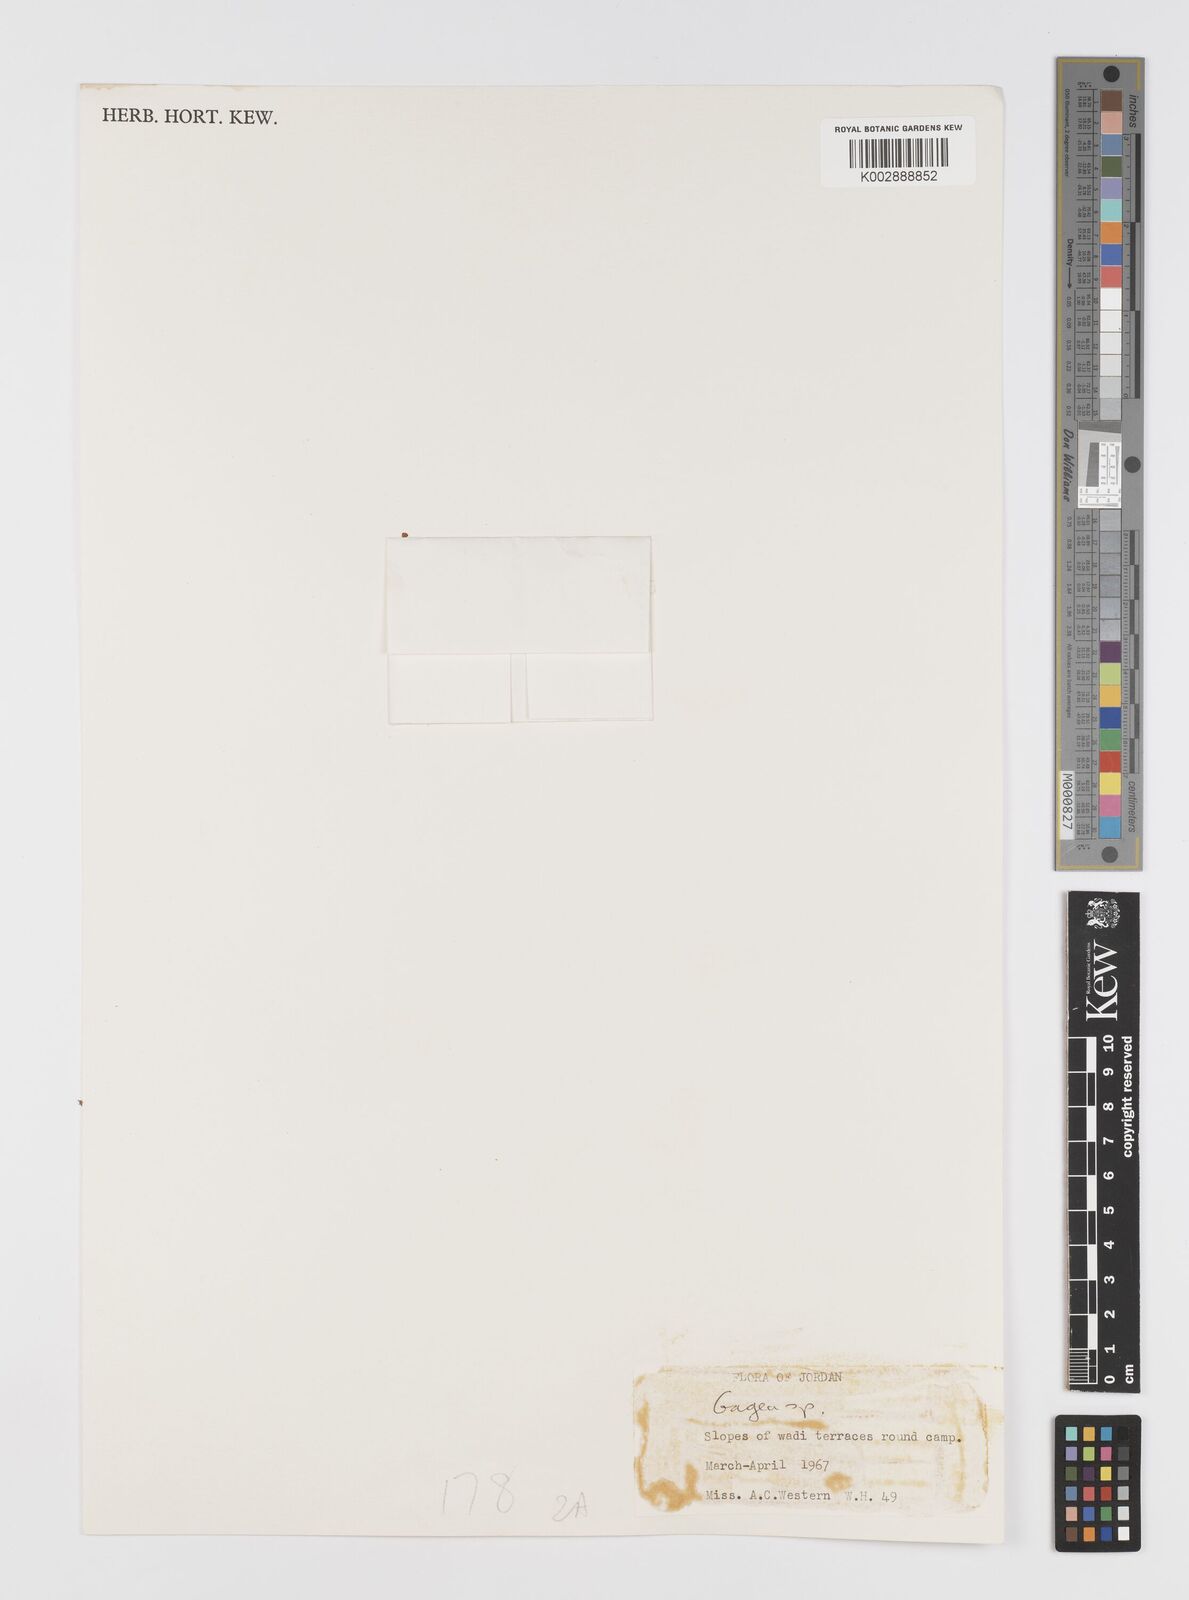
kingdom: Plantae
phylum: Tracheophyta
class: Liliopsida
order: Liliales
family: Liliaceae
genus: Gagea
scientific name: Gagea
